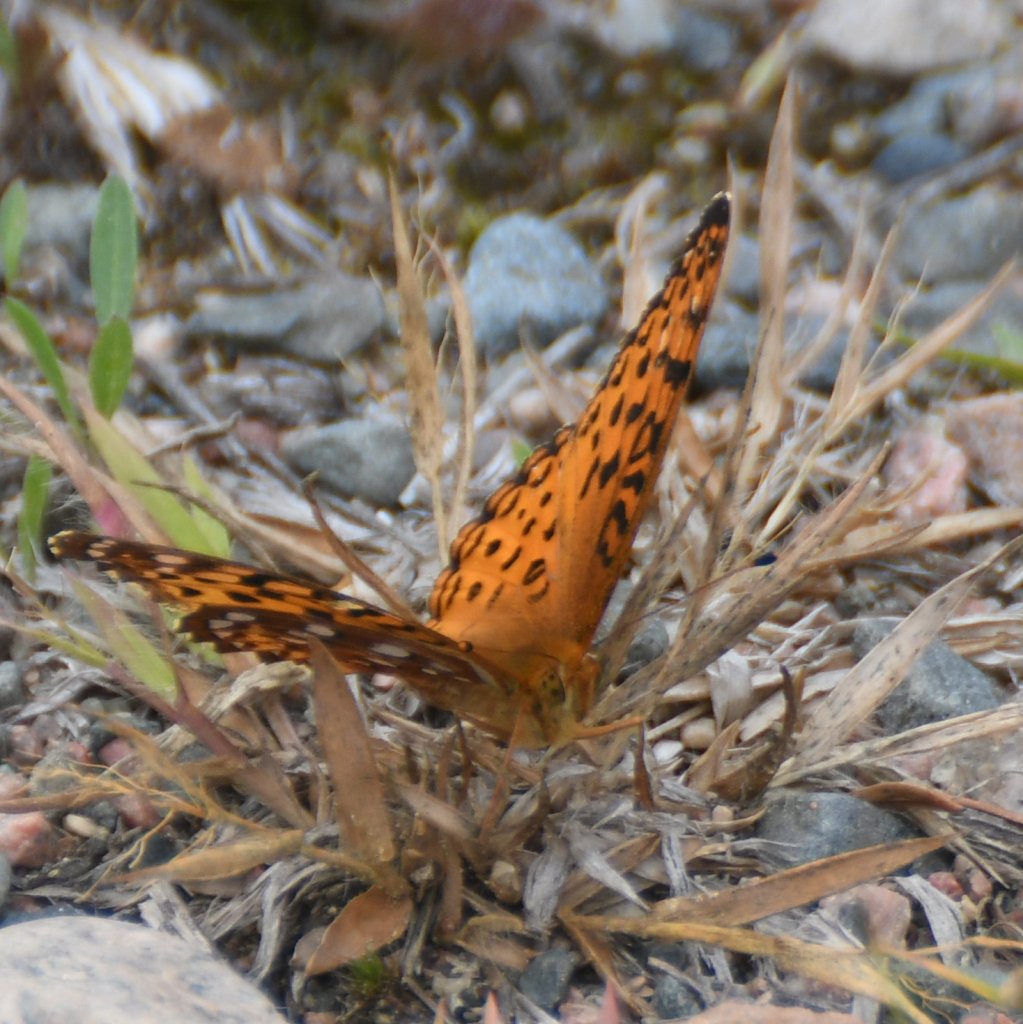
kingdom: Animalia
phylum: Arthropoda
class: Insecta
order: Lepidoptera
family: Nymphalidae
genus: Speyeria
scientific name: Speyeria aphrodite
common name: Aphrodite Fritillary
